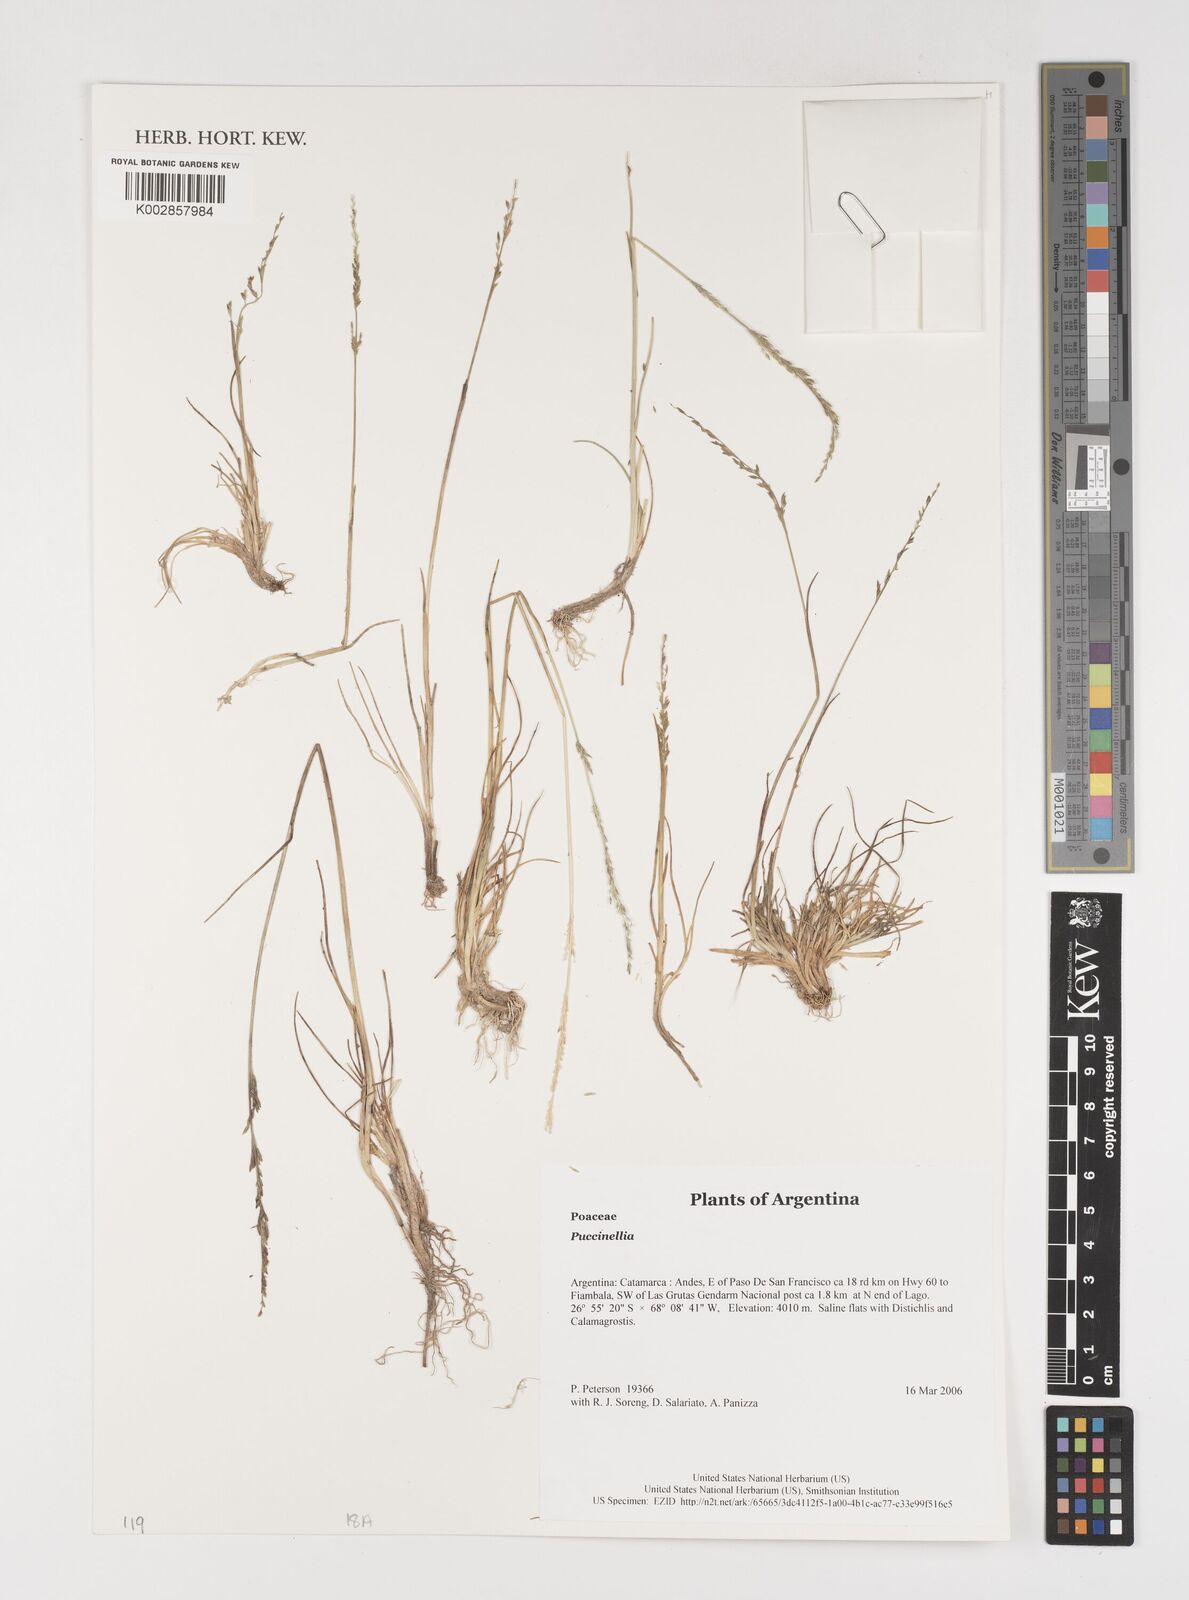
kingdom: Plantae
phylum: Tracheophyta
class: Liliopsida
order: Poales
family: Poaceae
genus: Puccinellia
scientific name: Puccinellia
